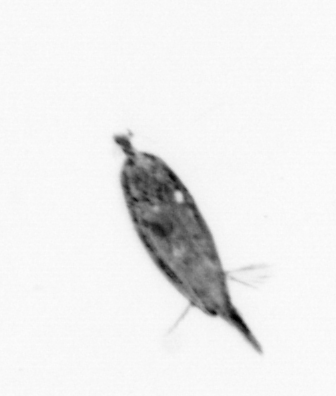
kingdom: Animalia
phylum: Arthropoda
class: Maxillopoda
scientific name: Maxillopoda
